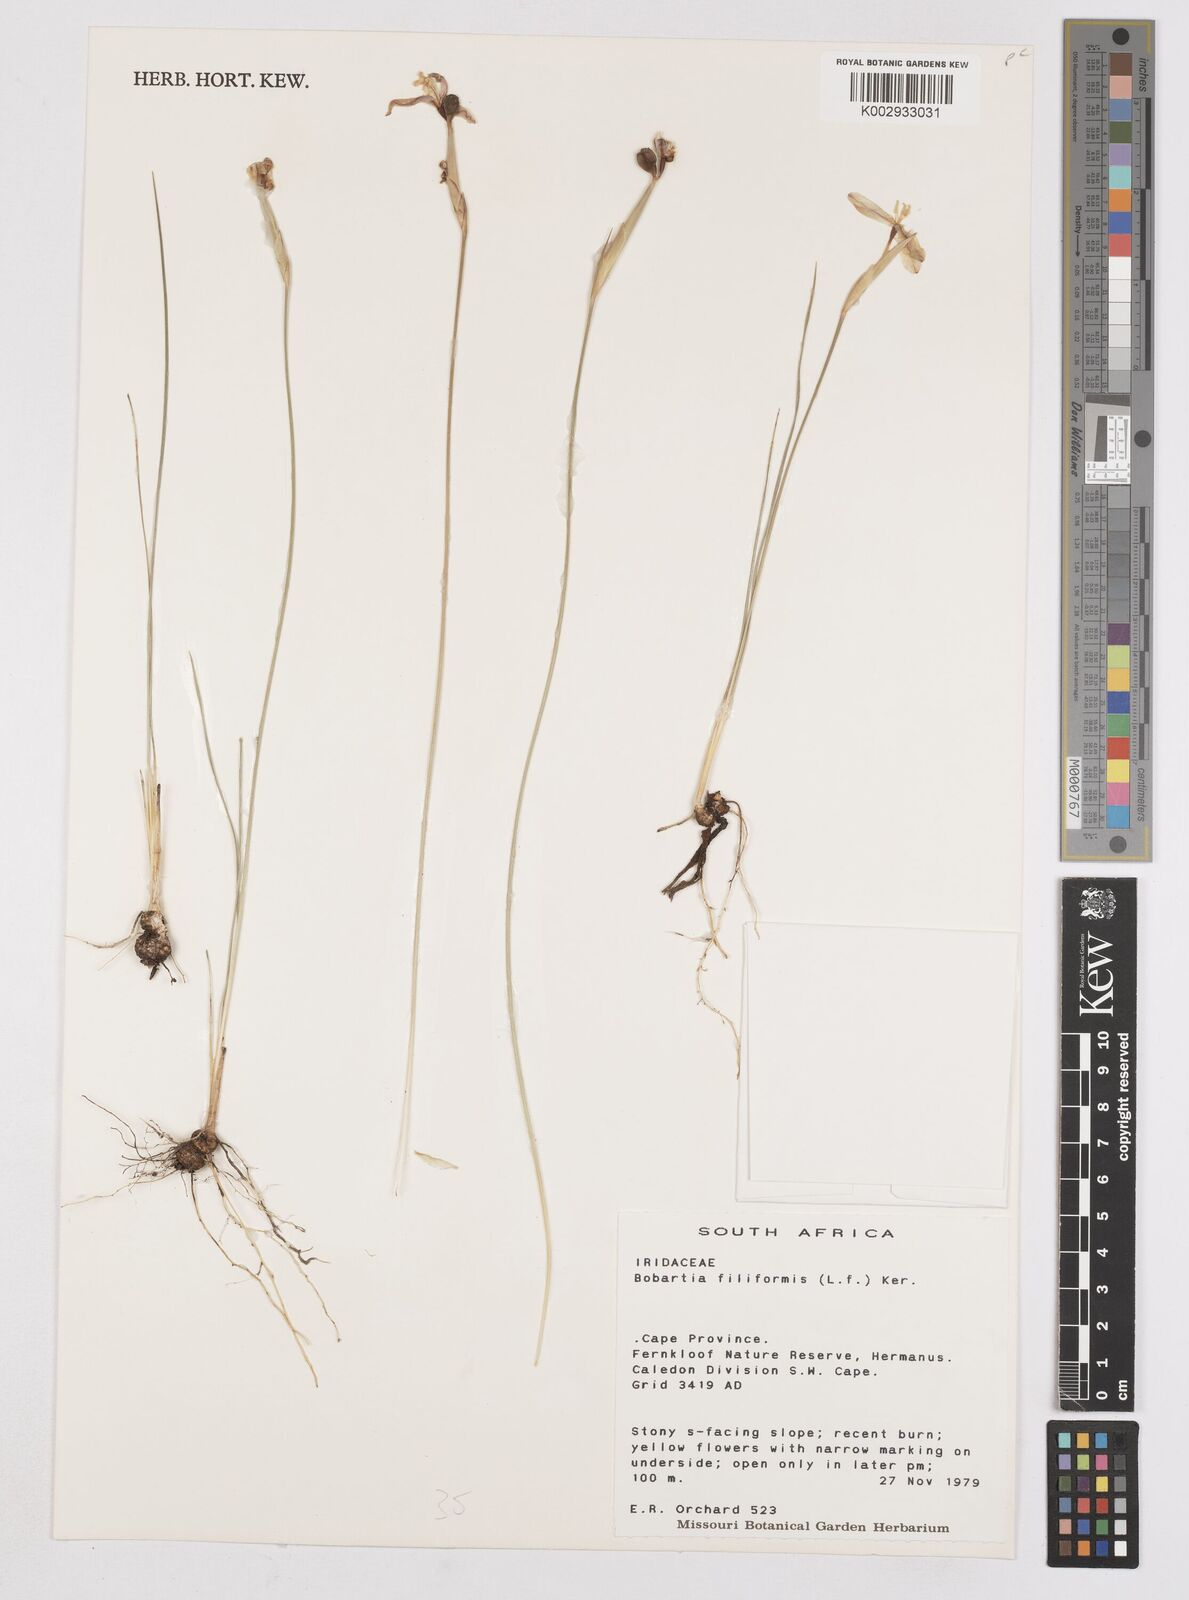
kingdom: Plantae
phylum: Tracheophyta
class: Liliopsida
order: Asparagales
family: Iridaceae
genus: Bobartia
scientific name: Bobartia filiformis
